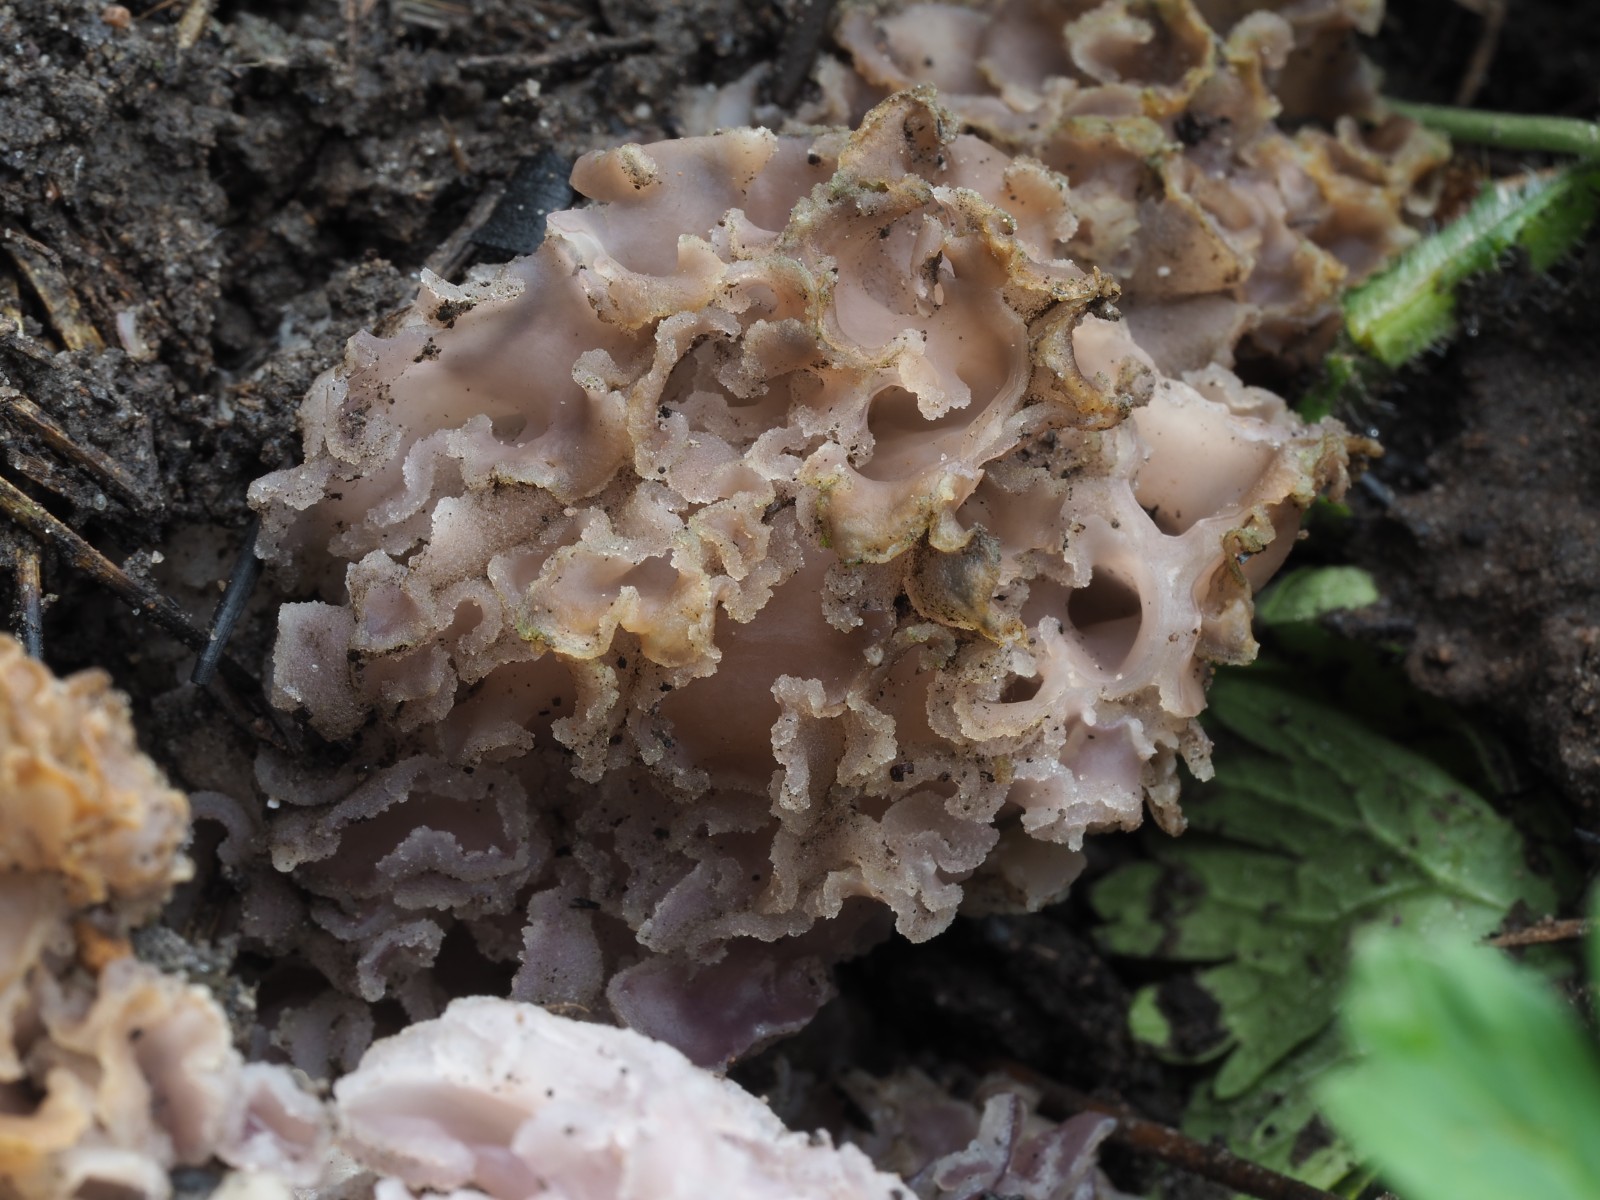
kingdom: Fungi
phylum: Ascomycota
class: Pezizomycetes
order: Pezizales
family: Pezizaceae
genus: Daleomyces
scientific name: Daleomyces phillipsii
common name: blomkåls-bægersvamp
